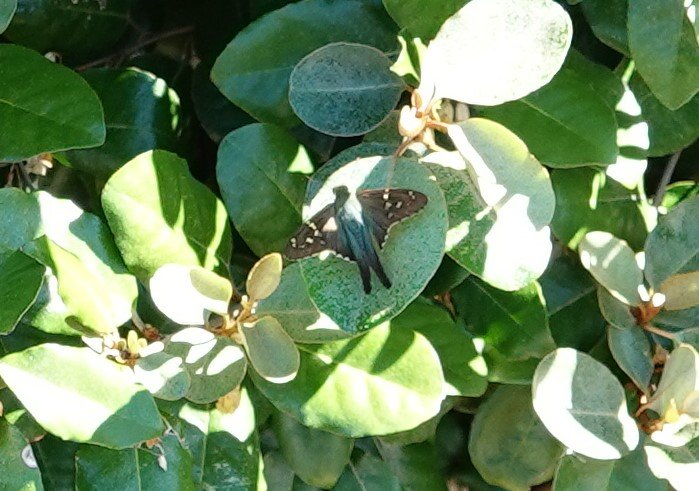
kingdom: Animalia
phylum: Arthropoda
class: Insecta
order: Lepidoptera
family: Hesperiidae
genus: Urbanus
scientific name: Urbanus proteus
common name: Long-tailed Skipper
